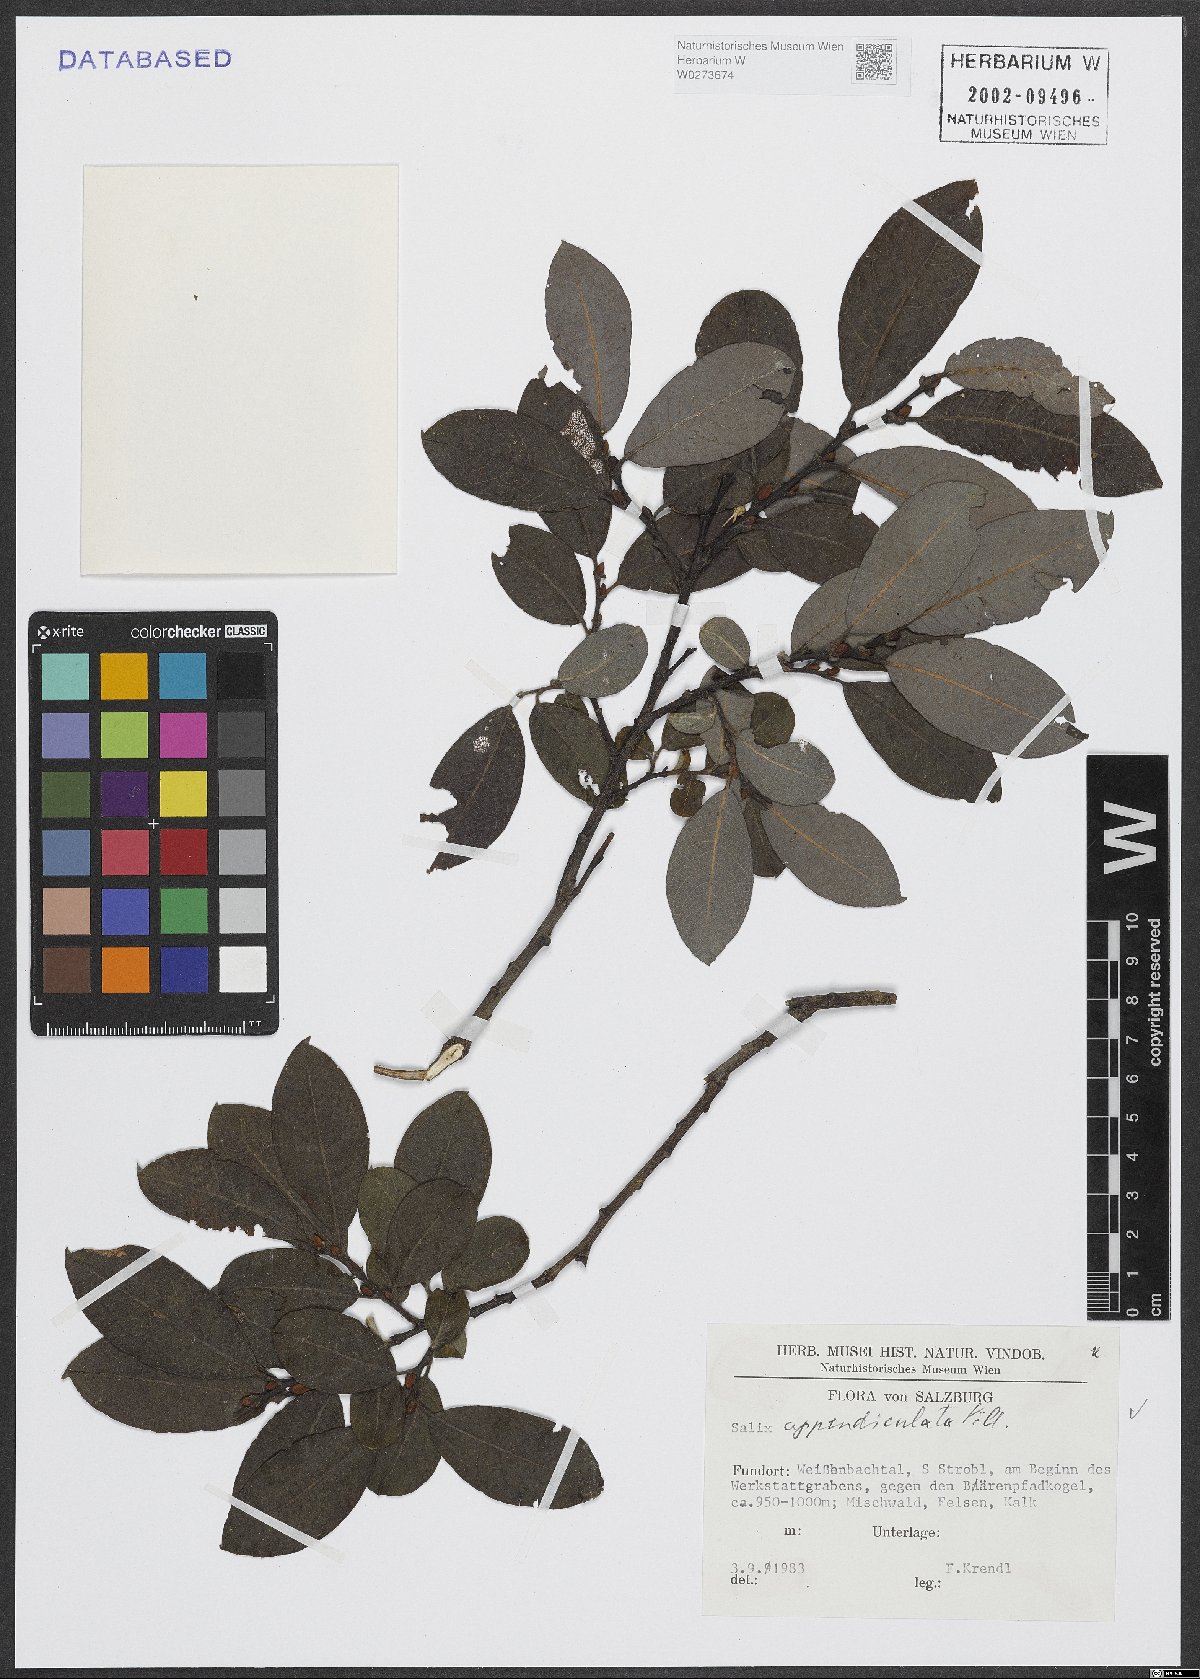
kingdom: Plantae
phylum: Tracheophyta
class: Magnoliopsida
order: Malpighiales
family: Salicaceae
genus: Salix
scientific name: Salix appendiculata
